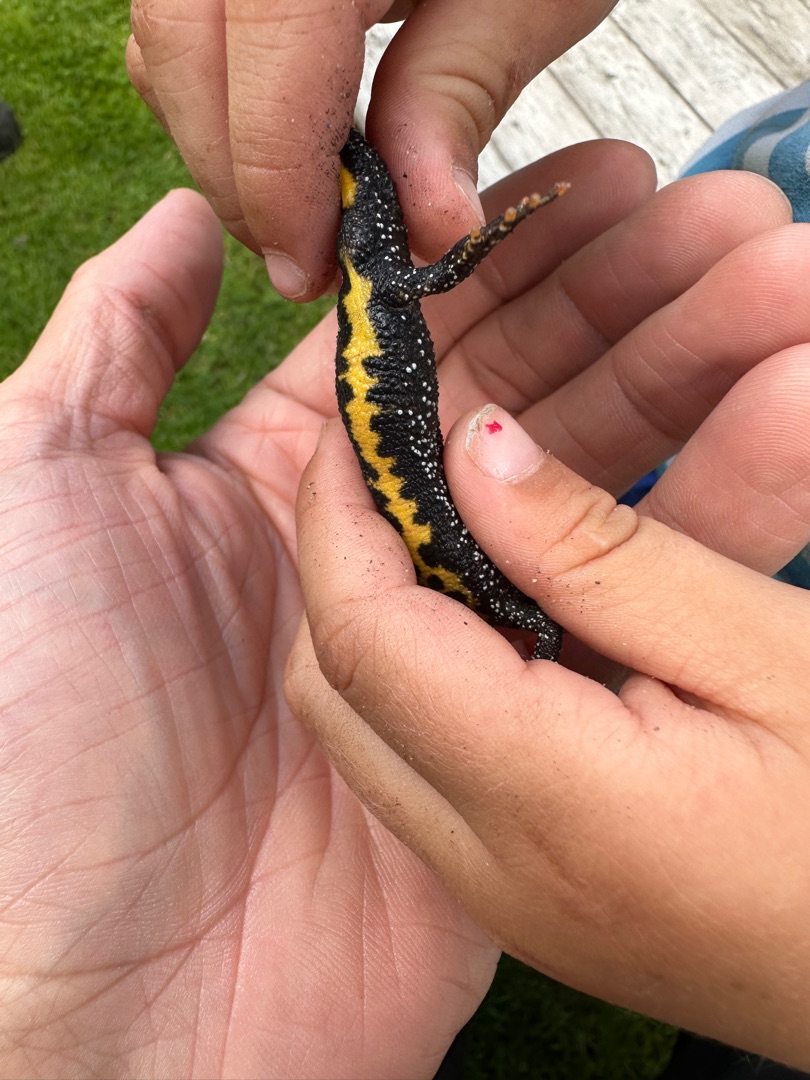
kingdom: Animalia
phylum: Chordata
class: Amphibia
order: Caudata
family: Salamandridae
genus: Triturus
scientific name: Triturus cristatus
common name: Stor vandsalamander
